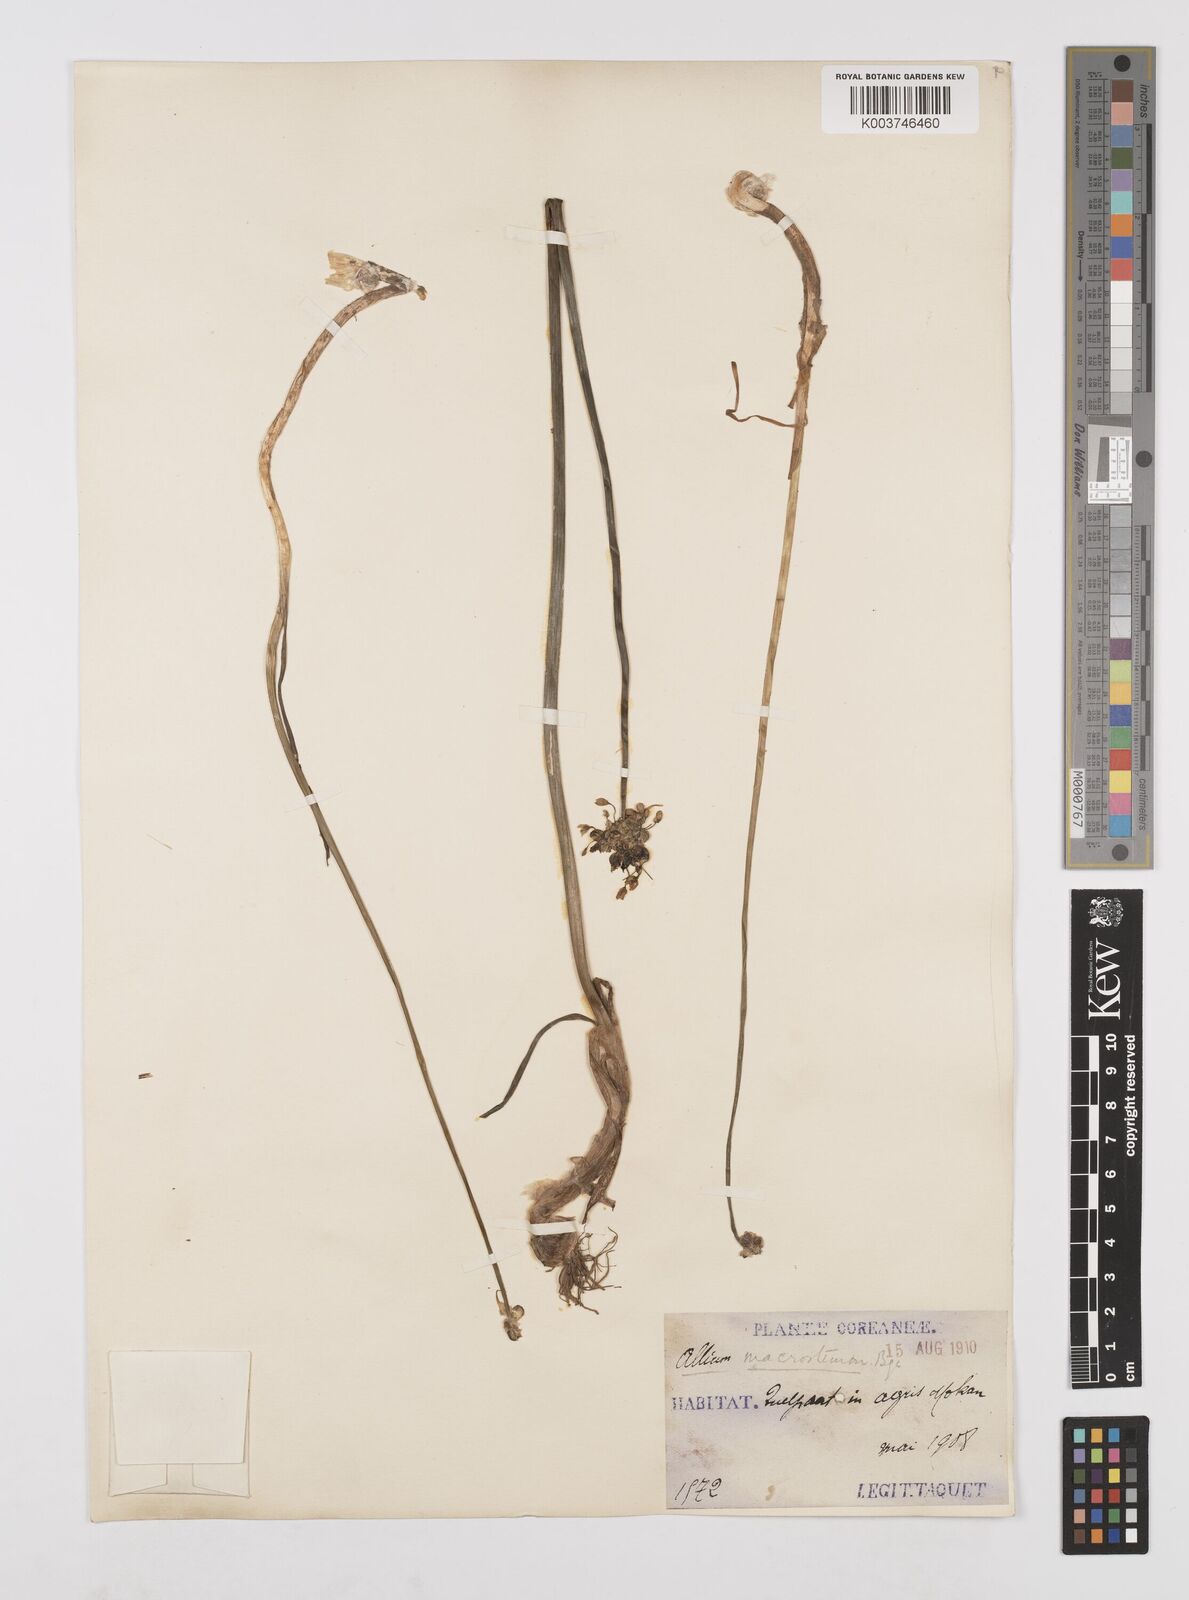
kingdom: Plantae
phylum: Tracheophyta
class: Liliopsida
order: Asparagales
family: Amaryllidaceae
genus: Allium
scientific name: Allium macrostemon
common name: Chinese garlic
